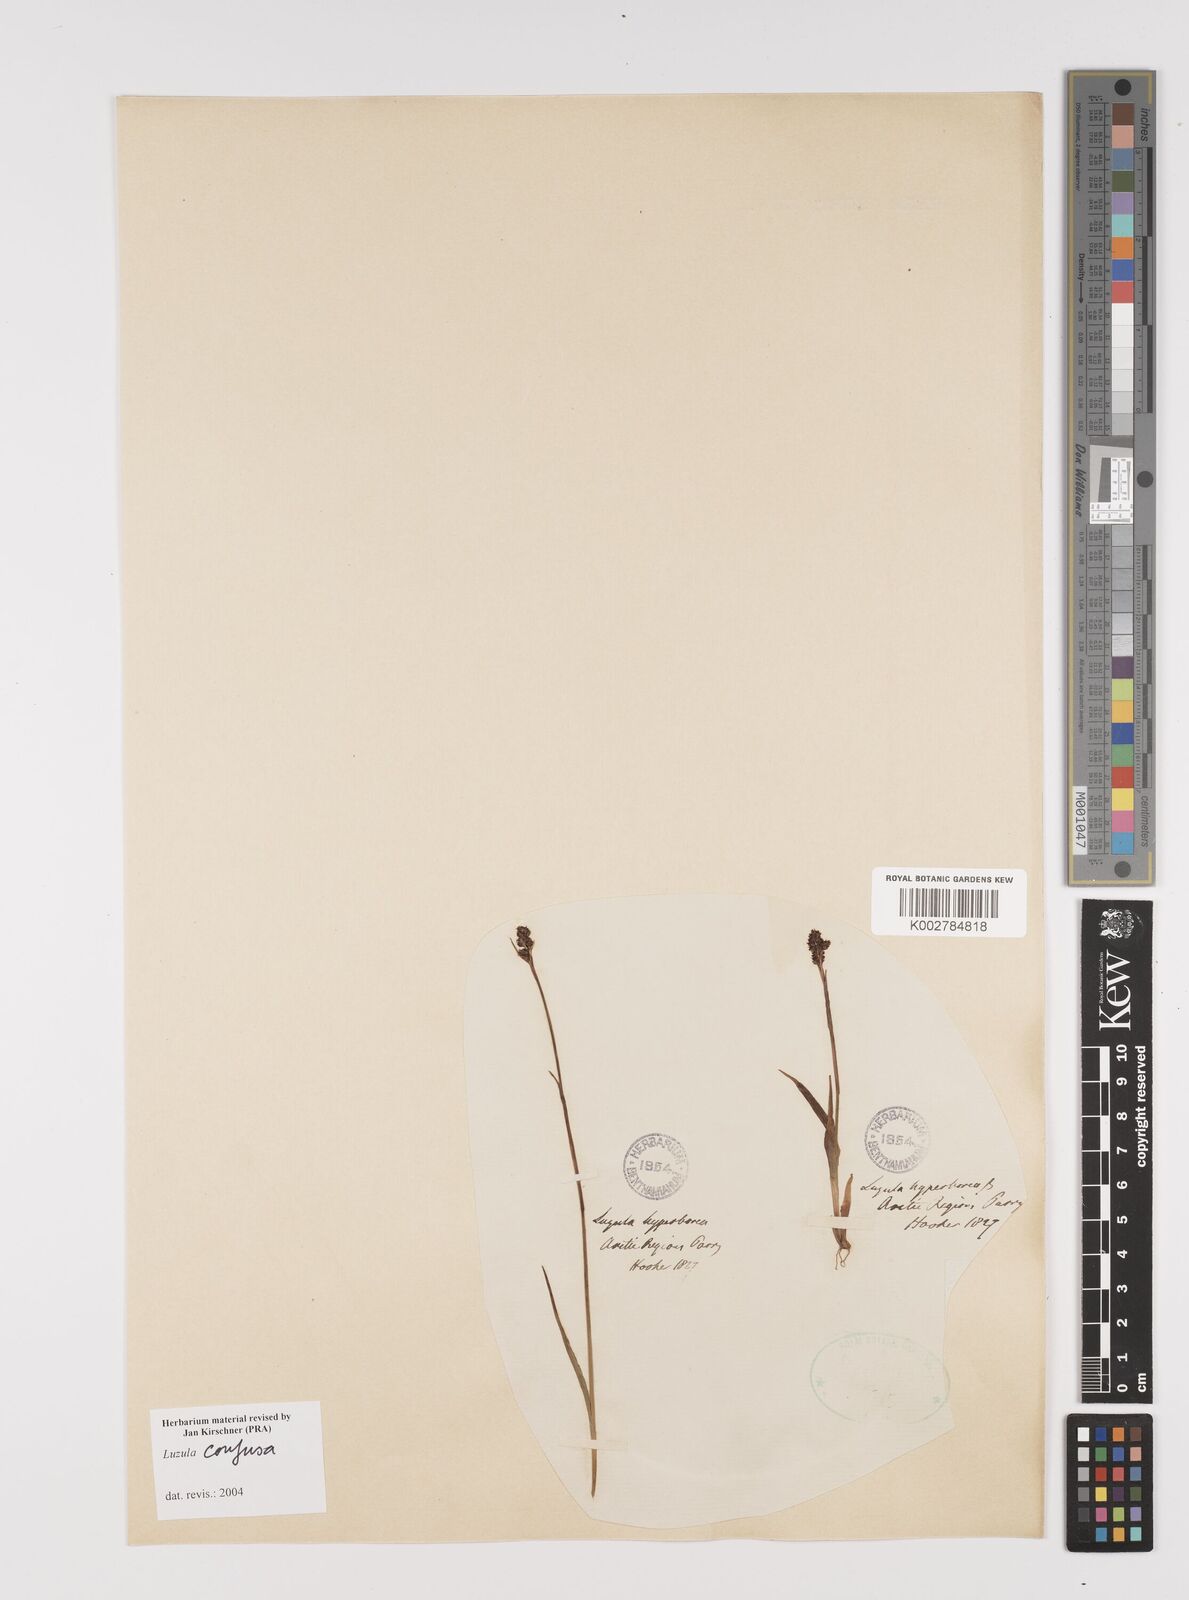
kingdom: Plantae
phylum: Tracheophyta
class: Liliopsida
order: Poales
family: Juncaceae
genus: Luzula
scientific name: Luzula confusa
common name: Northern wood rush
